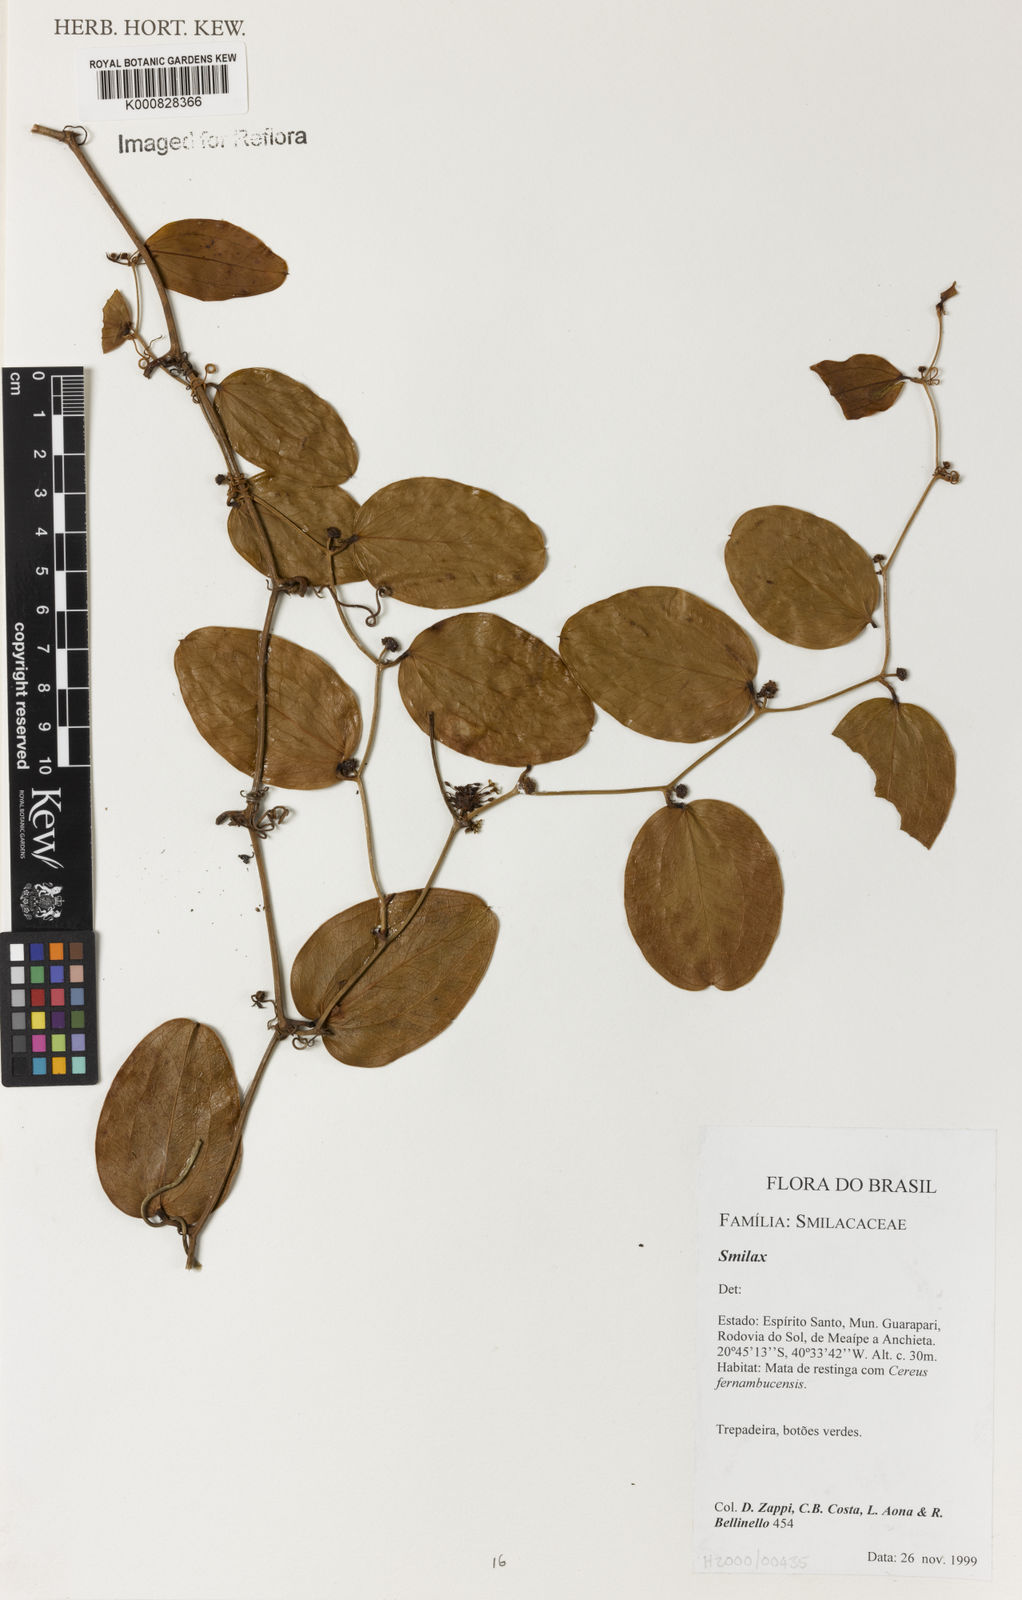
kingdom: Plantae
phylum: Tracheophyta
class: Liliopsida
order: Liliales
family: Smilacaceae
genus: Smilax
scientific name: Smilax
